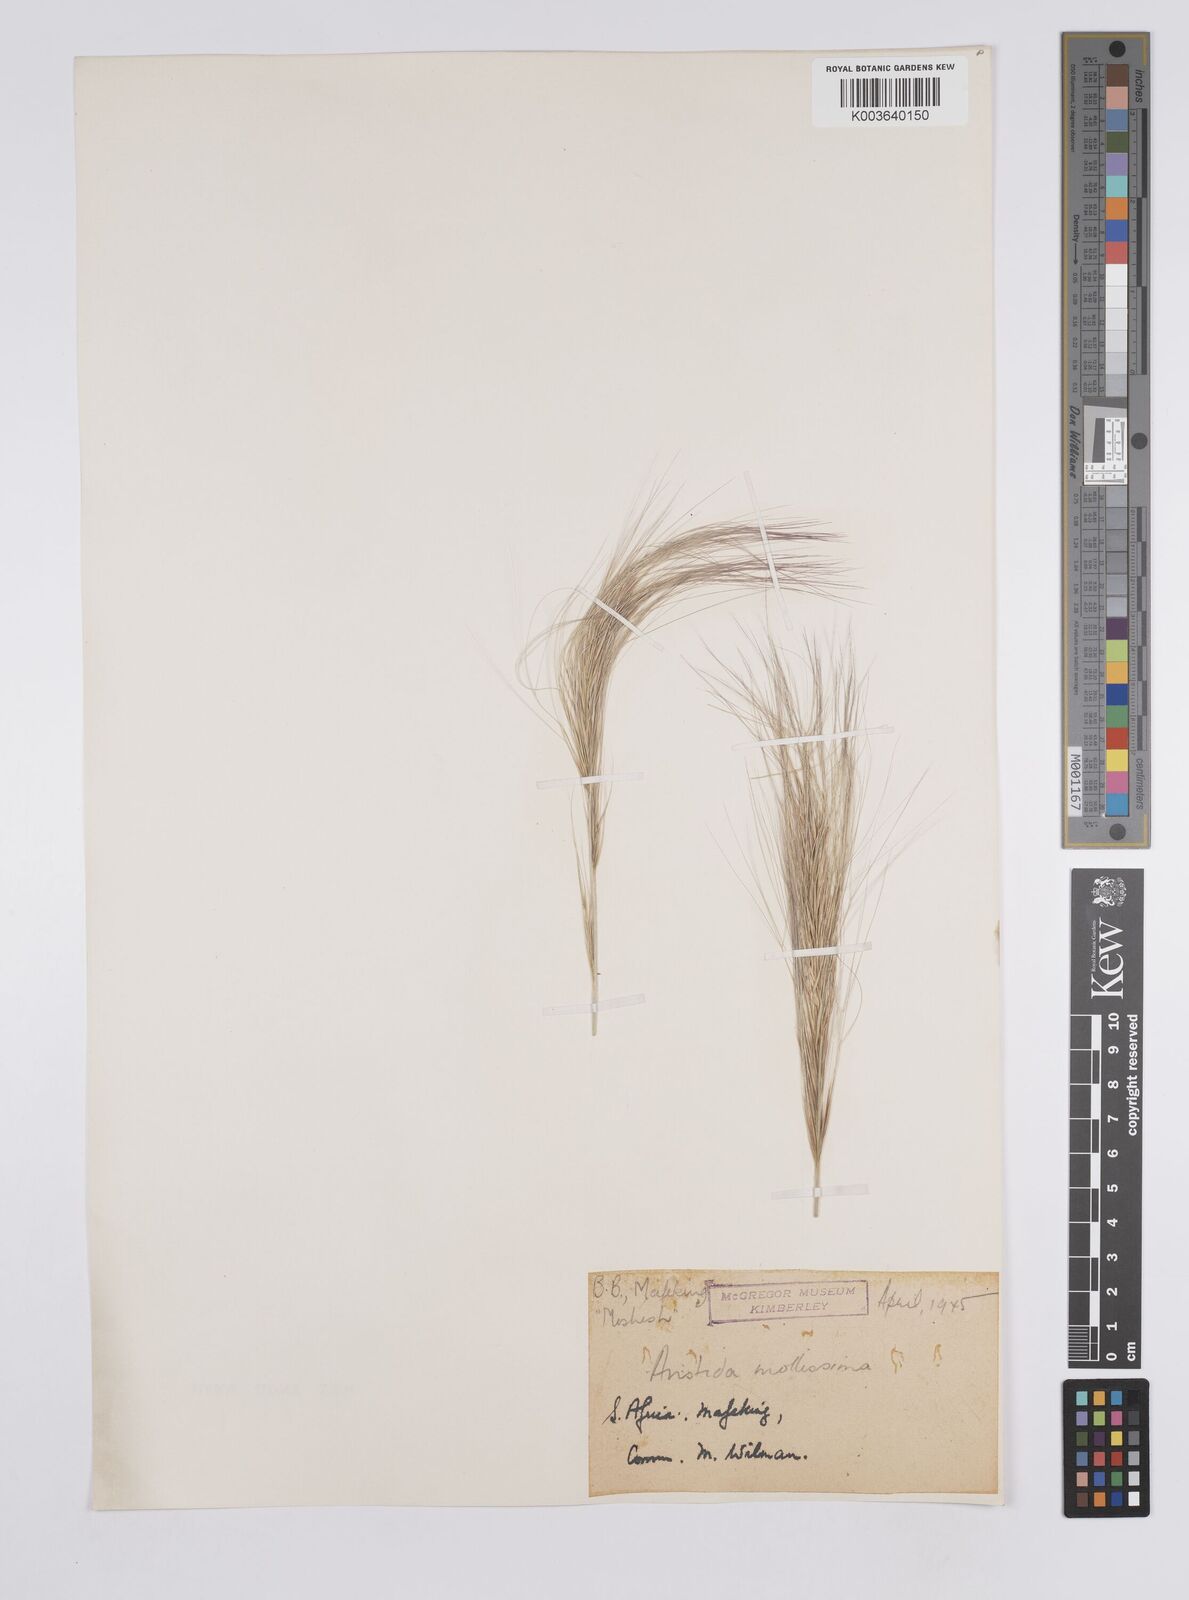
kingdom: Plantae
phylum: Tracheophyta
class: Liliopsida
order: Poales
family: Poaceae
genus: Aristida
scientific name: Aristida stipitata
